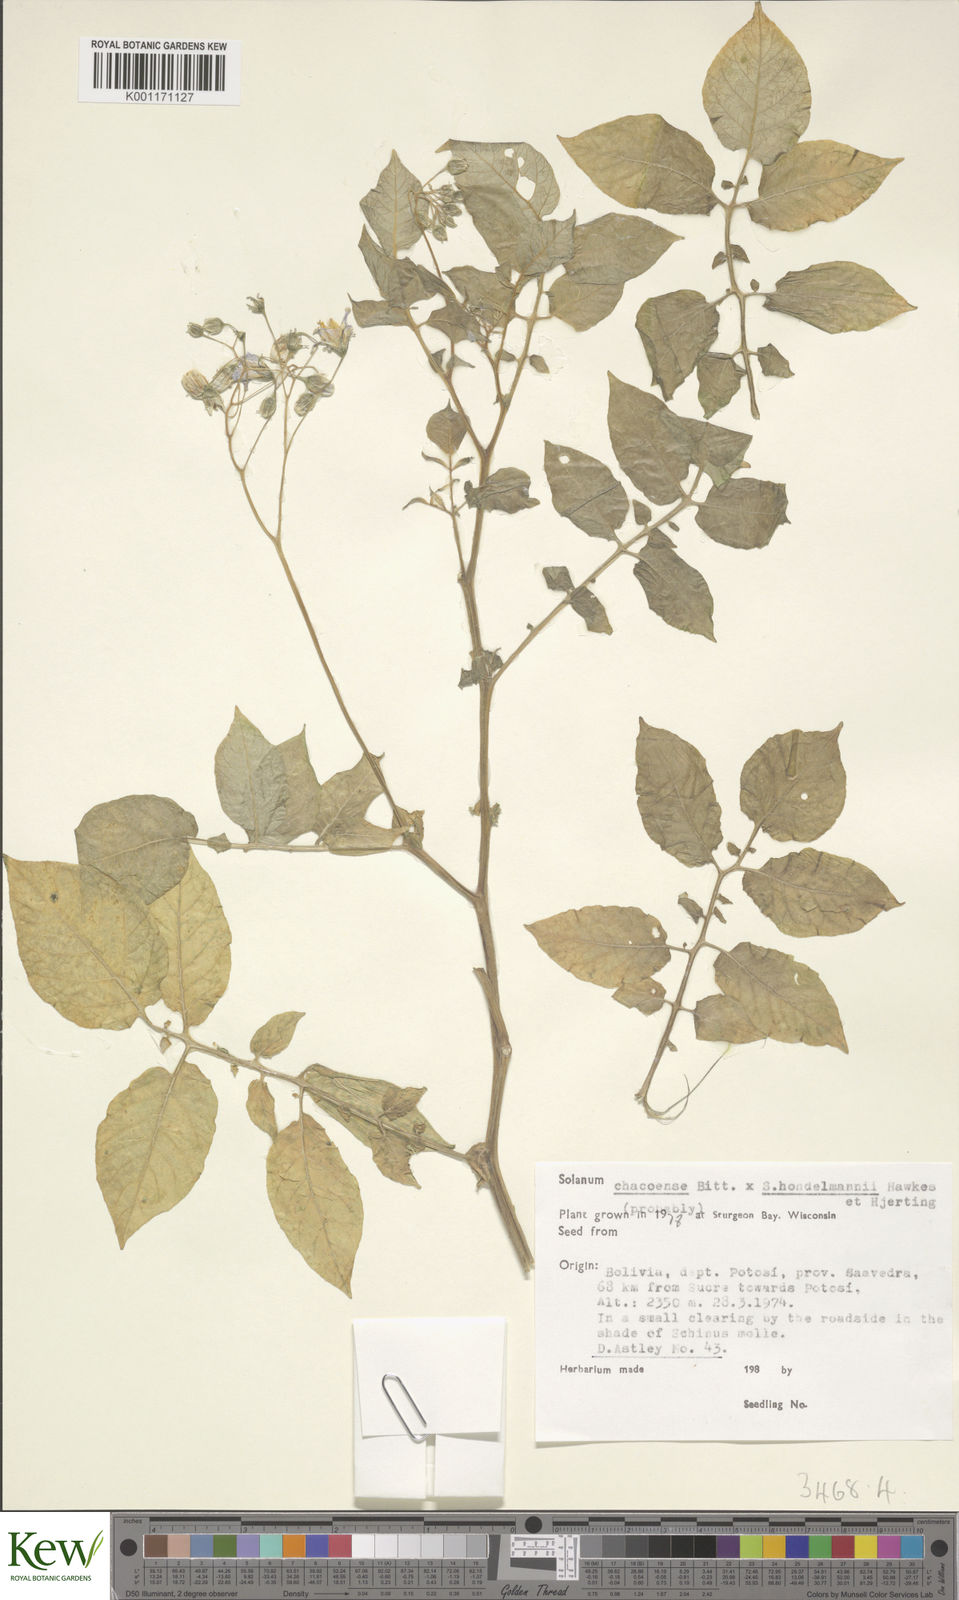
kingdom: Plantae
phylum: Tracheophyta
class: Magnoliopsida
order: Solanales
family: Solanaceae
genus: Solanum
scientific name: Solanum chacoense
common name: Chaco potato
